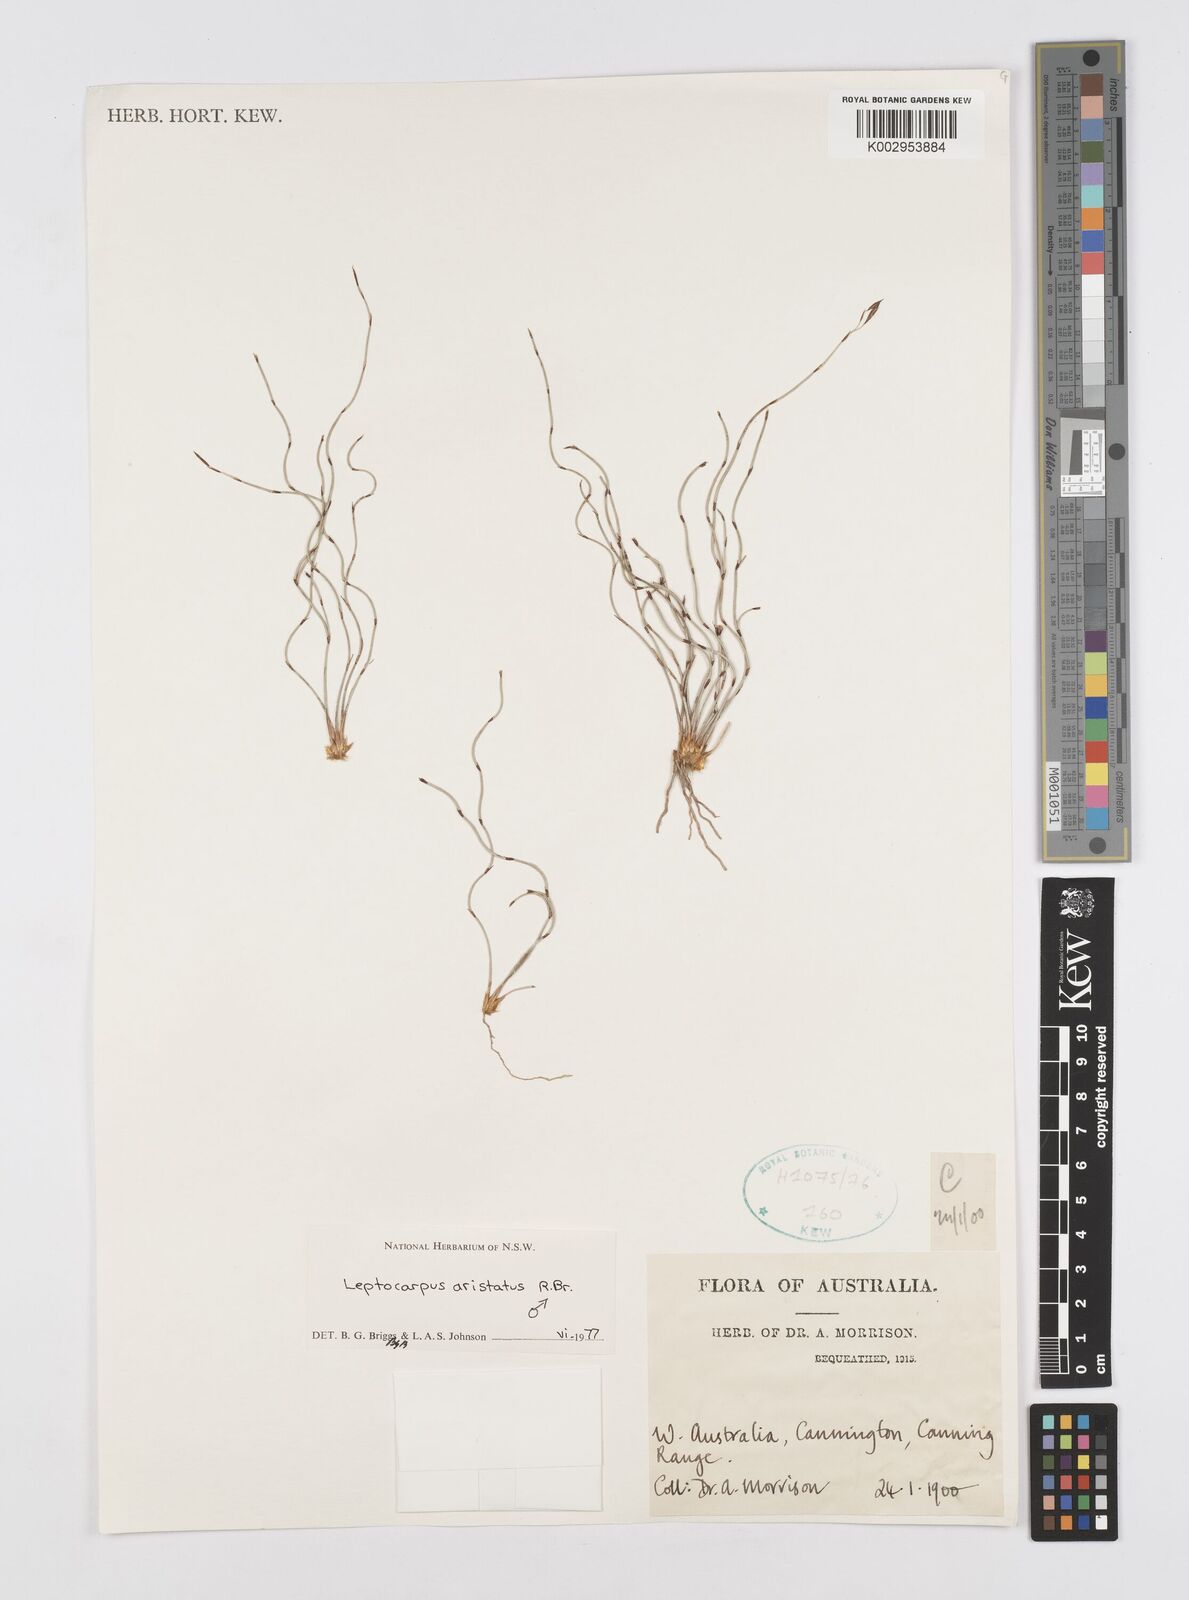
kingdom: Plantae
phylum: Tracheophyta
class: Liliopsida
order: Poales
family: Restionaceae
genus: Chaetanthus
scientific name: Chaetanthus aristatus
